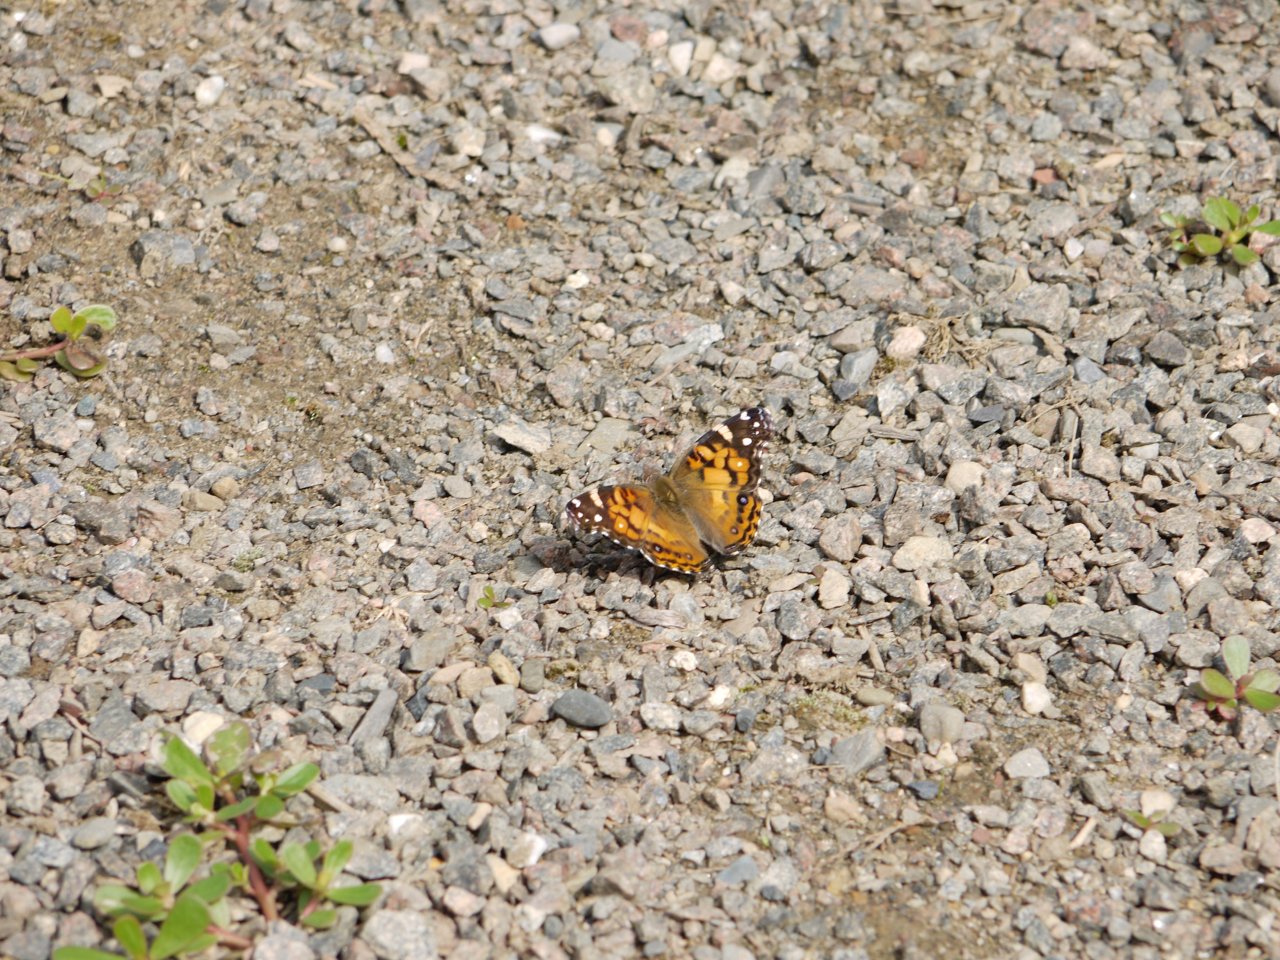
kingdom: Animalia
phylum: Arthropoda
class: Insecta
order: Lepidoptera
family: Nymphalidae
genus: Vanessa
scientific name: Vanessa virginiensis
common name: American Lady
